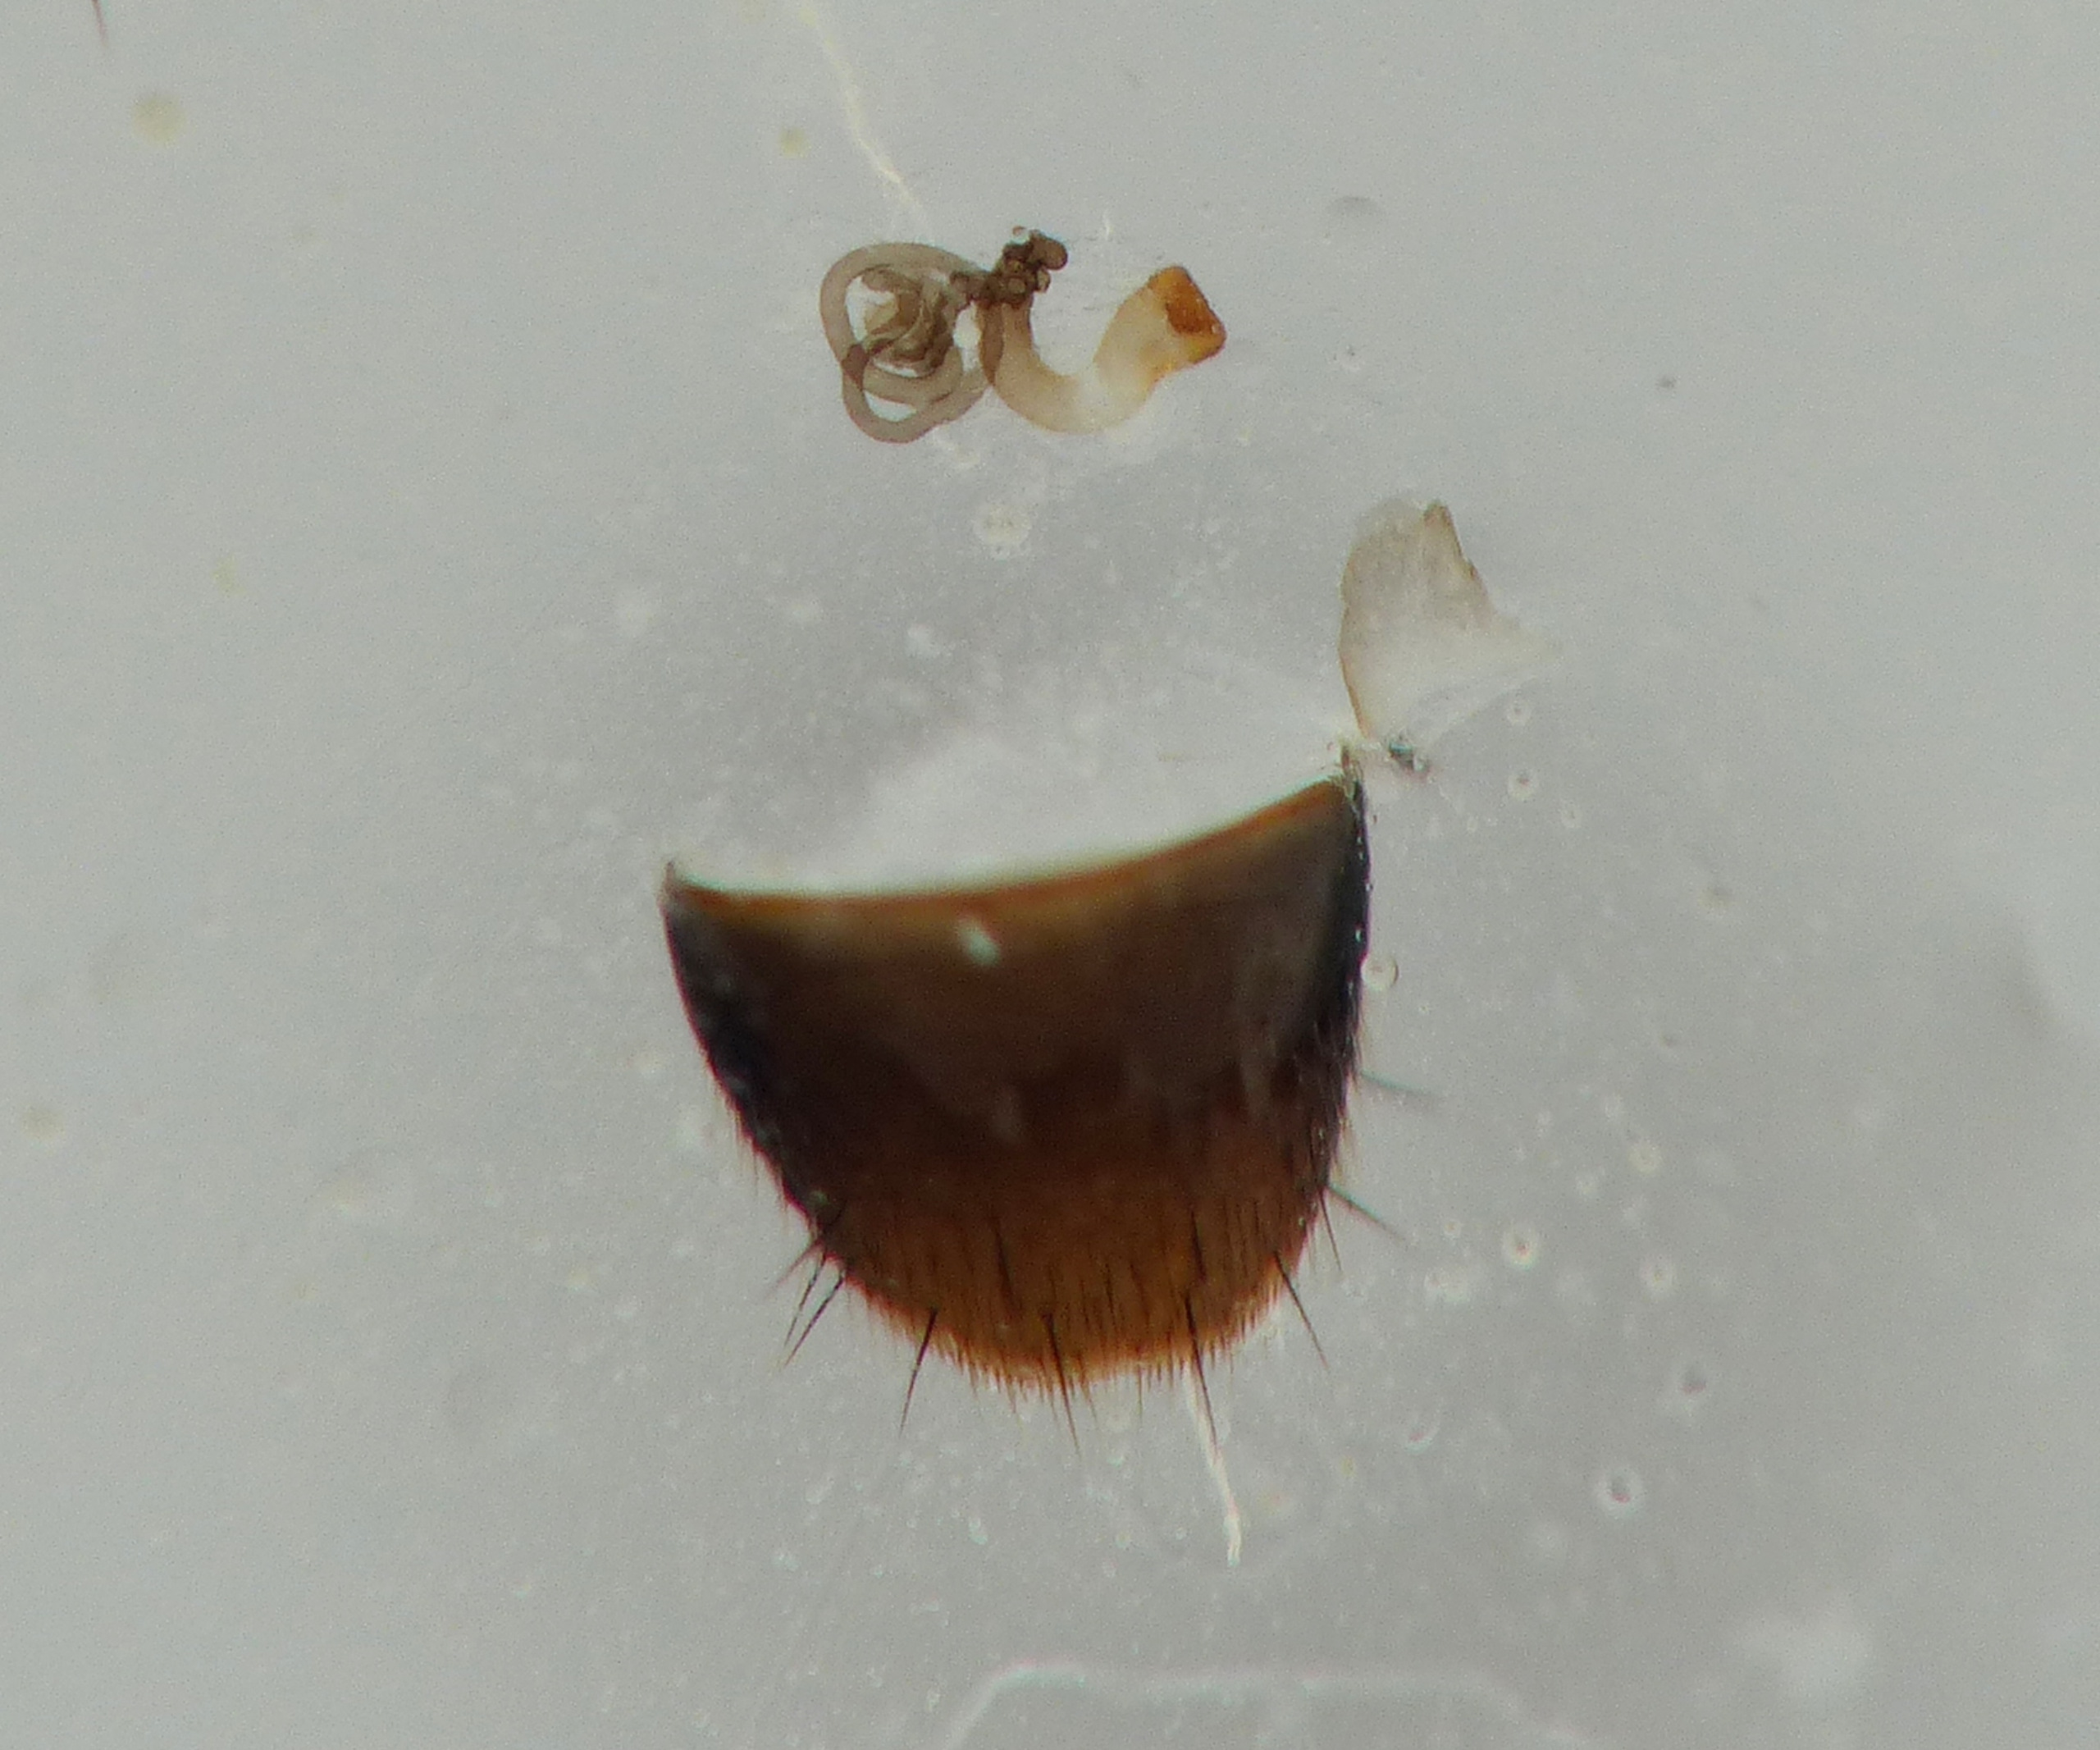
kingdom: Animalia
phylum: Arthropoda
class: Insecta
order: Coleoptera
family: Staphylinidae
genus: Atheta
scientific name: Atheta graminicola
